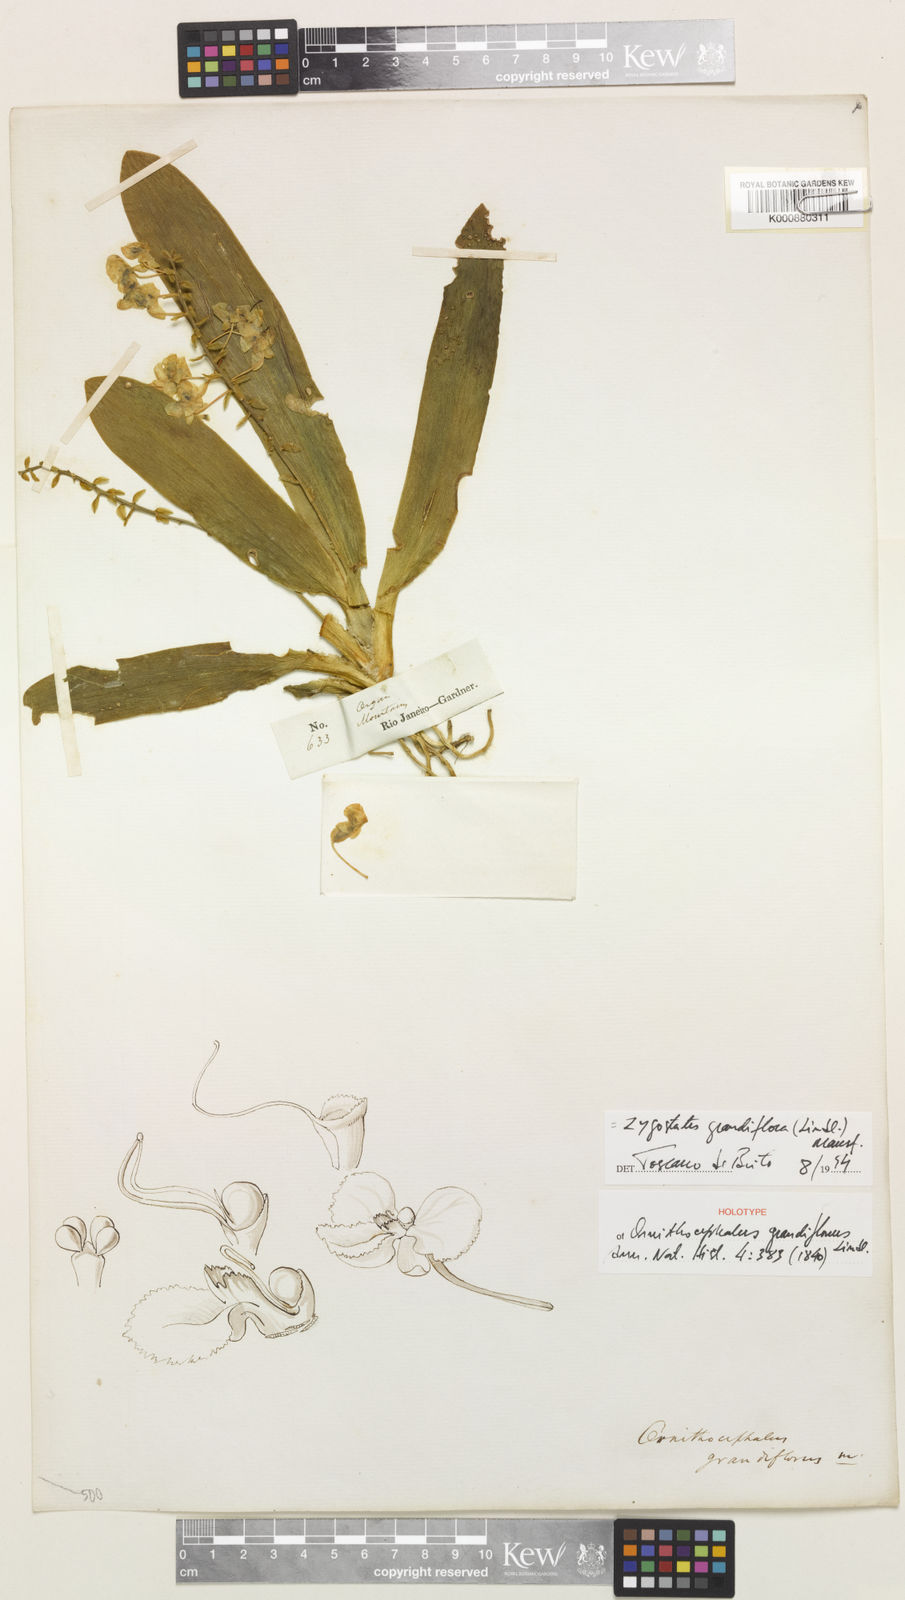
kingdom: Plantae
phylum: Tracheophyta
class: Liliopsida
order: Asparagales
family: Orchidaceae
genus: Zygostates
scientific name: Zygostates grandiflora
